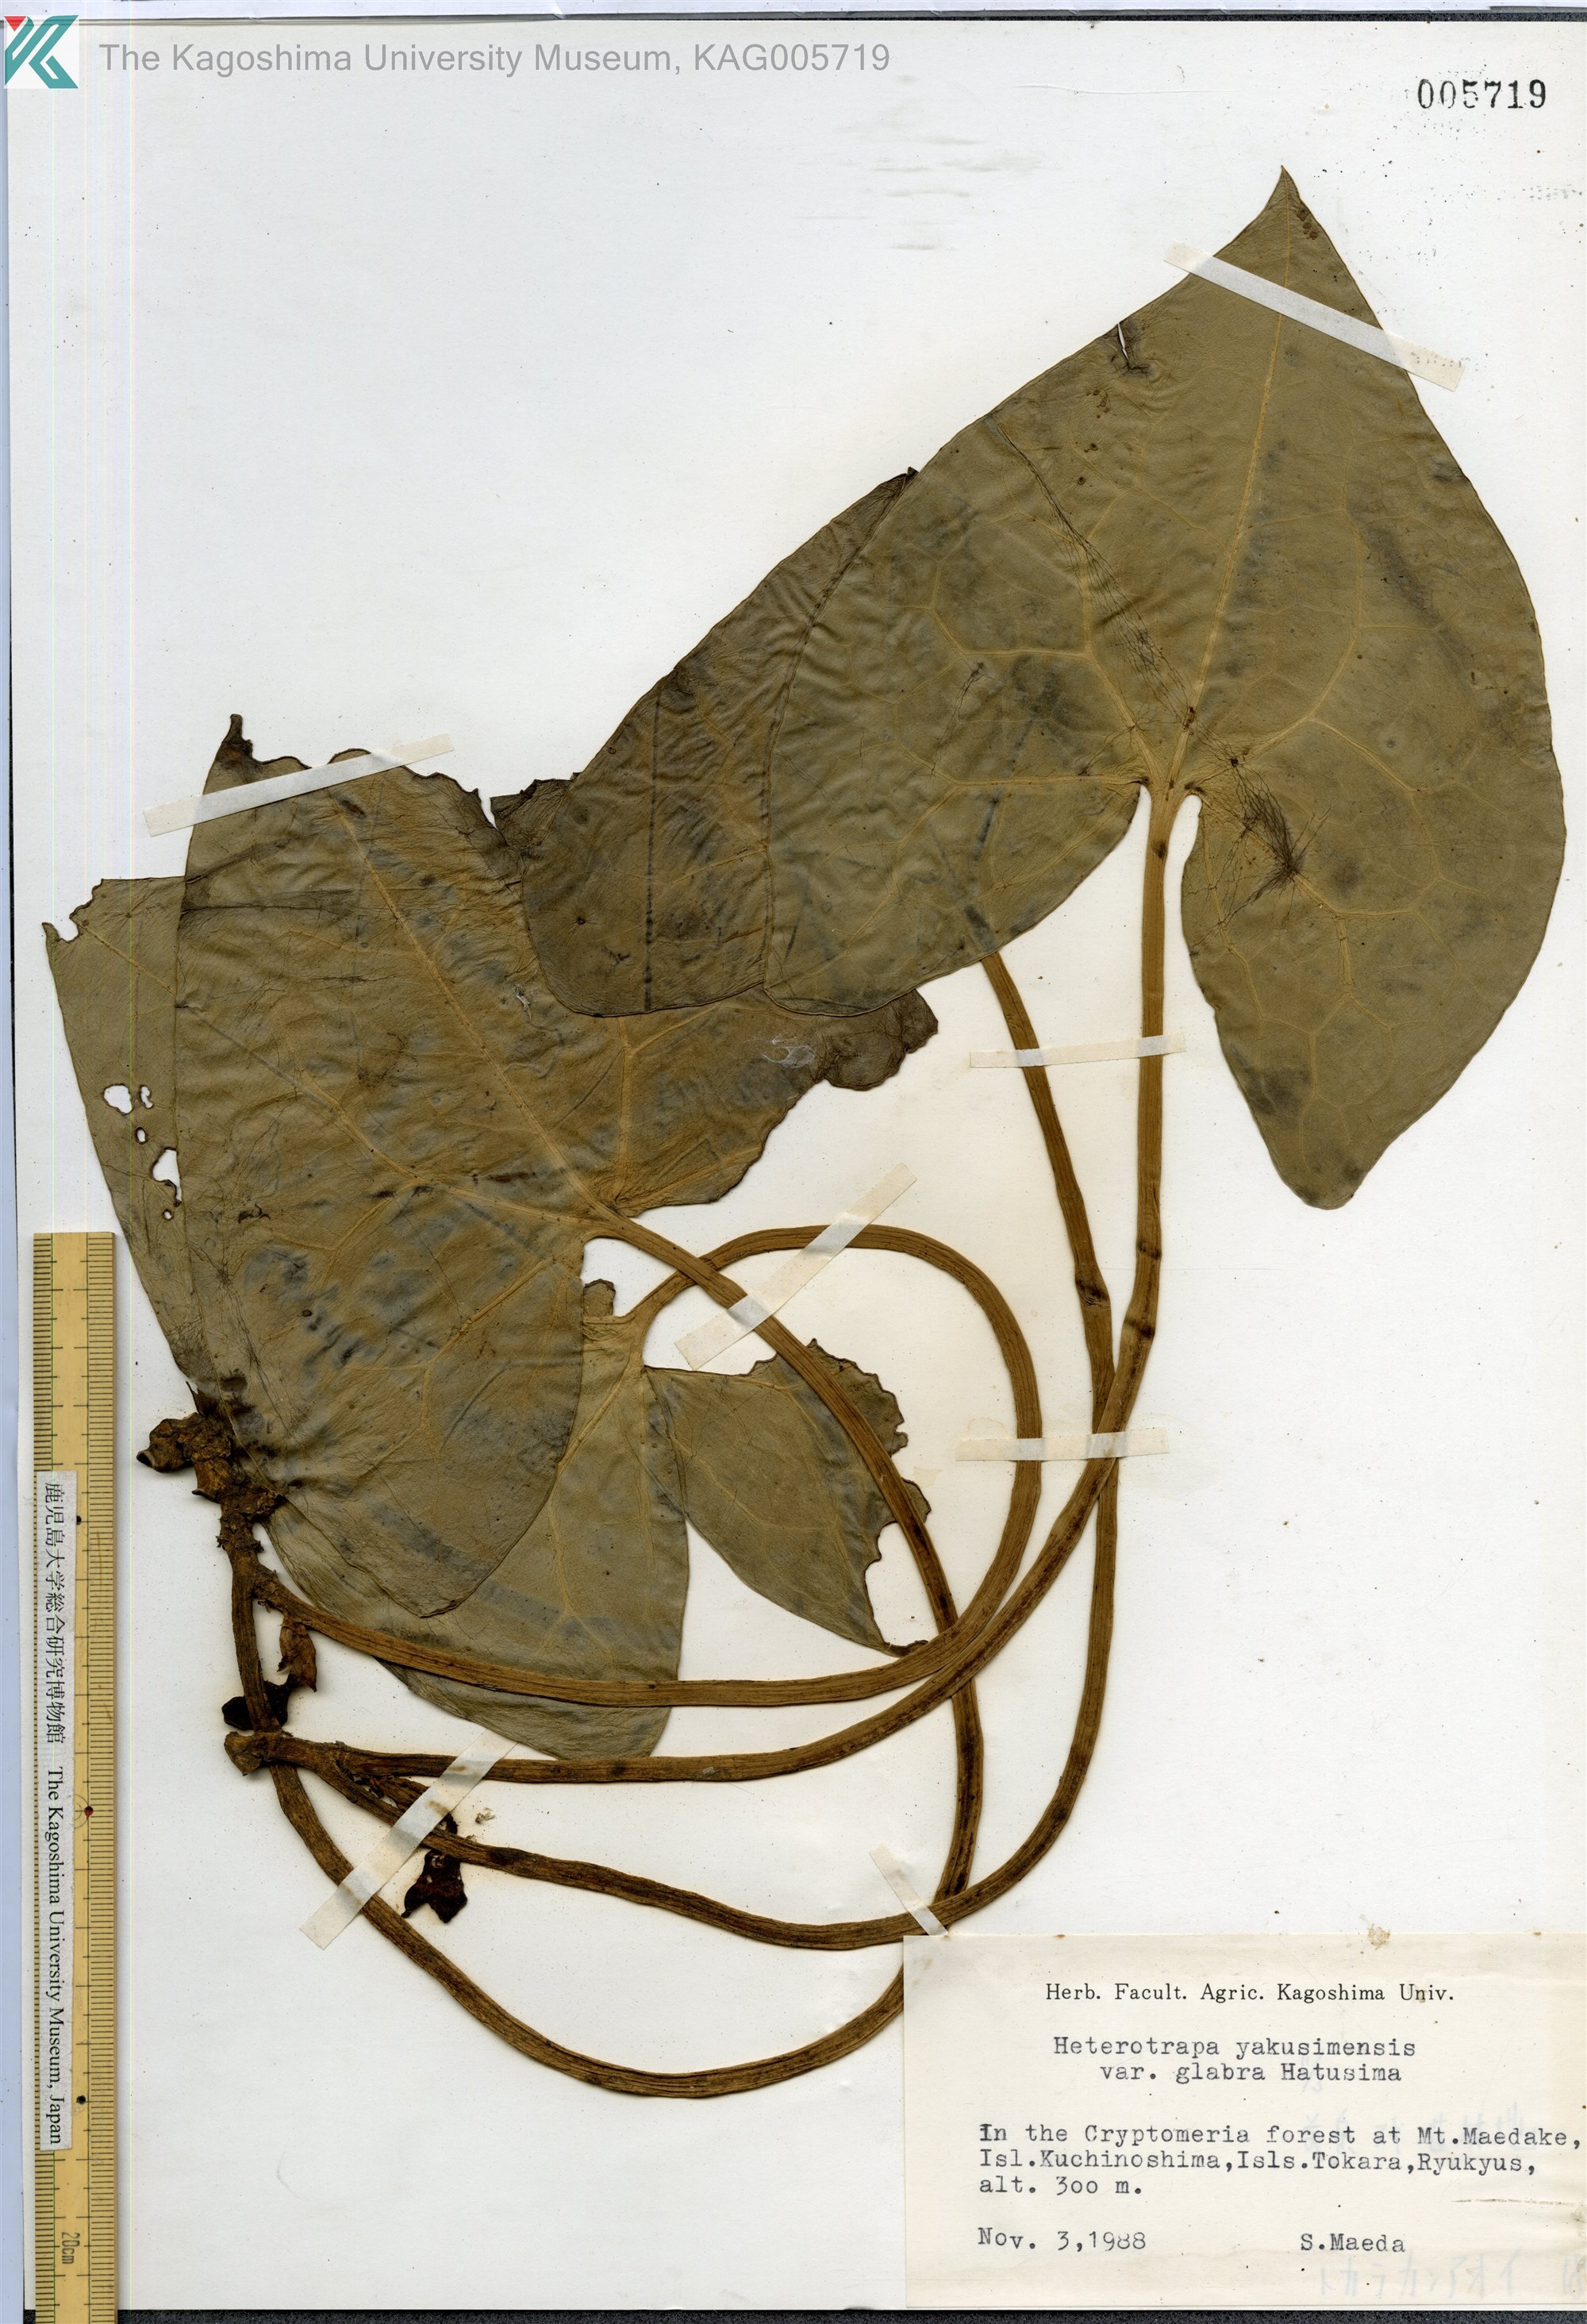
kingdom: Plantae
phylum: Tracheophyta
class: Magnoliopsida
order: Piperales
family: Aristolochiaceae
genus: Asarum
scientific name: Asarum tokarense
